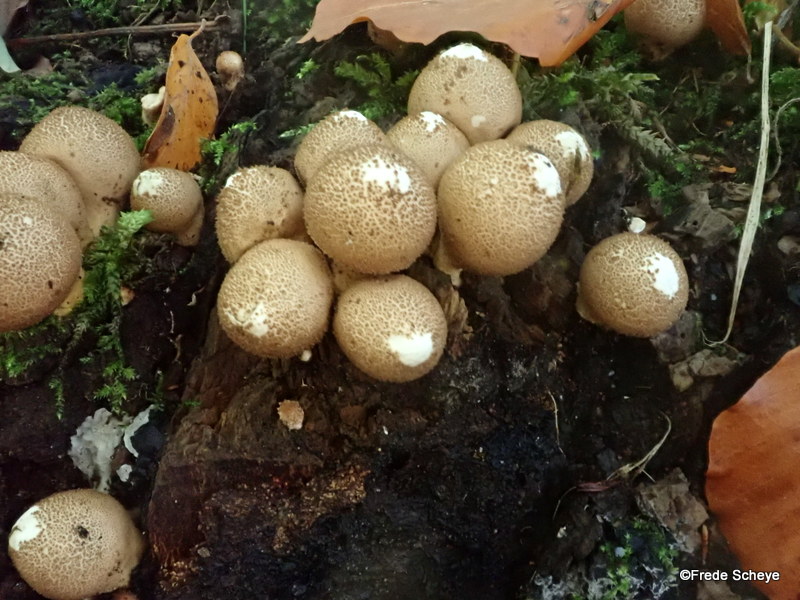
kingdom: Fungi
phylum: Basidiomycota
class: Agaricomycetes
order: Agaricales
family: Lycoperdaceae
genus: Apioperdon
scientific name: Apioperdon pyriforme
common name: pære-støvbold
